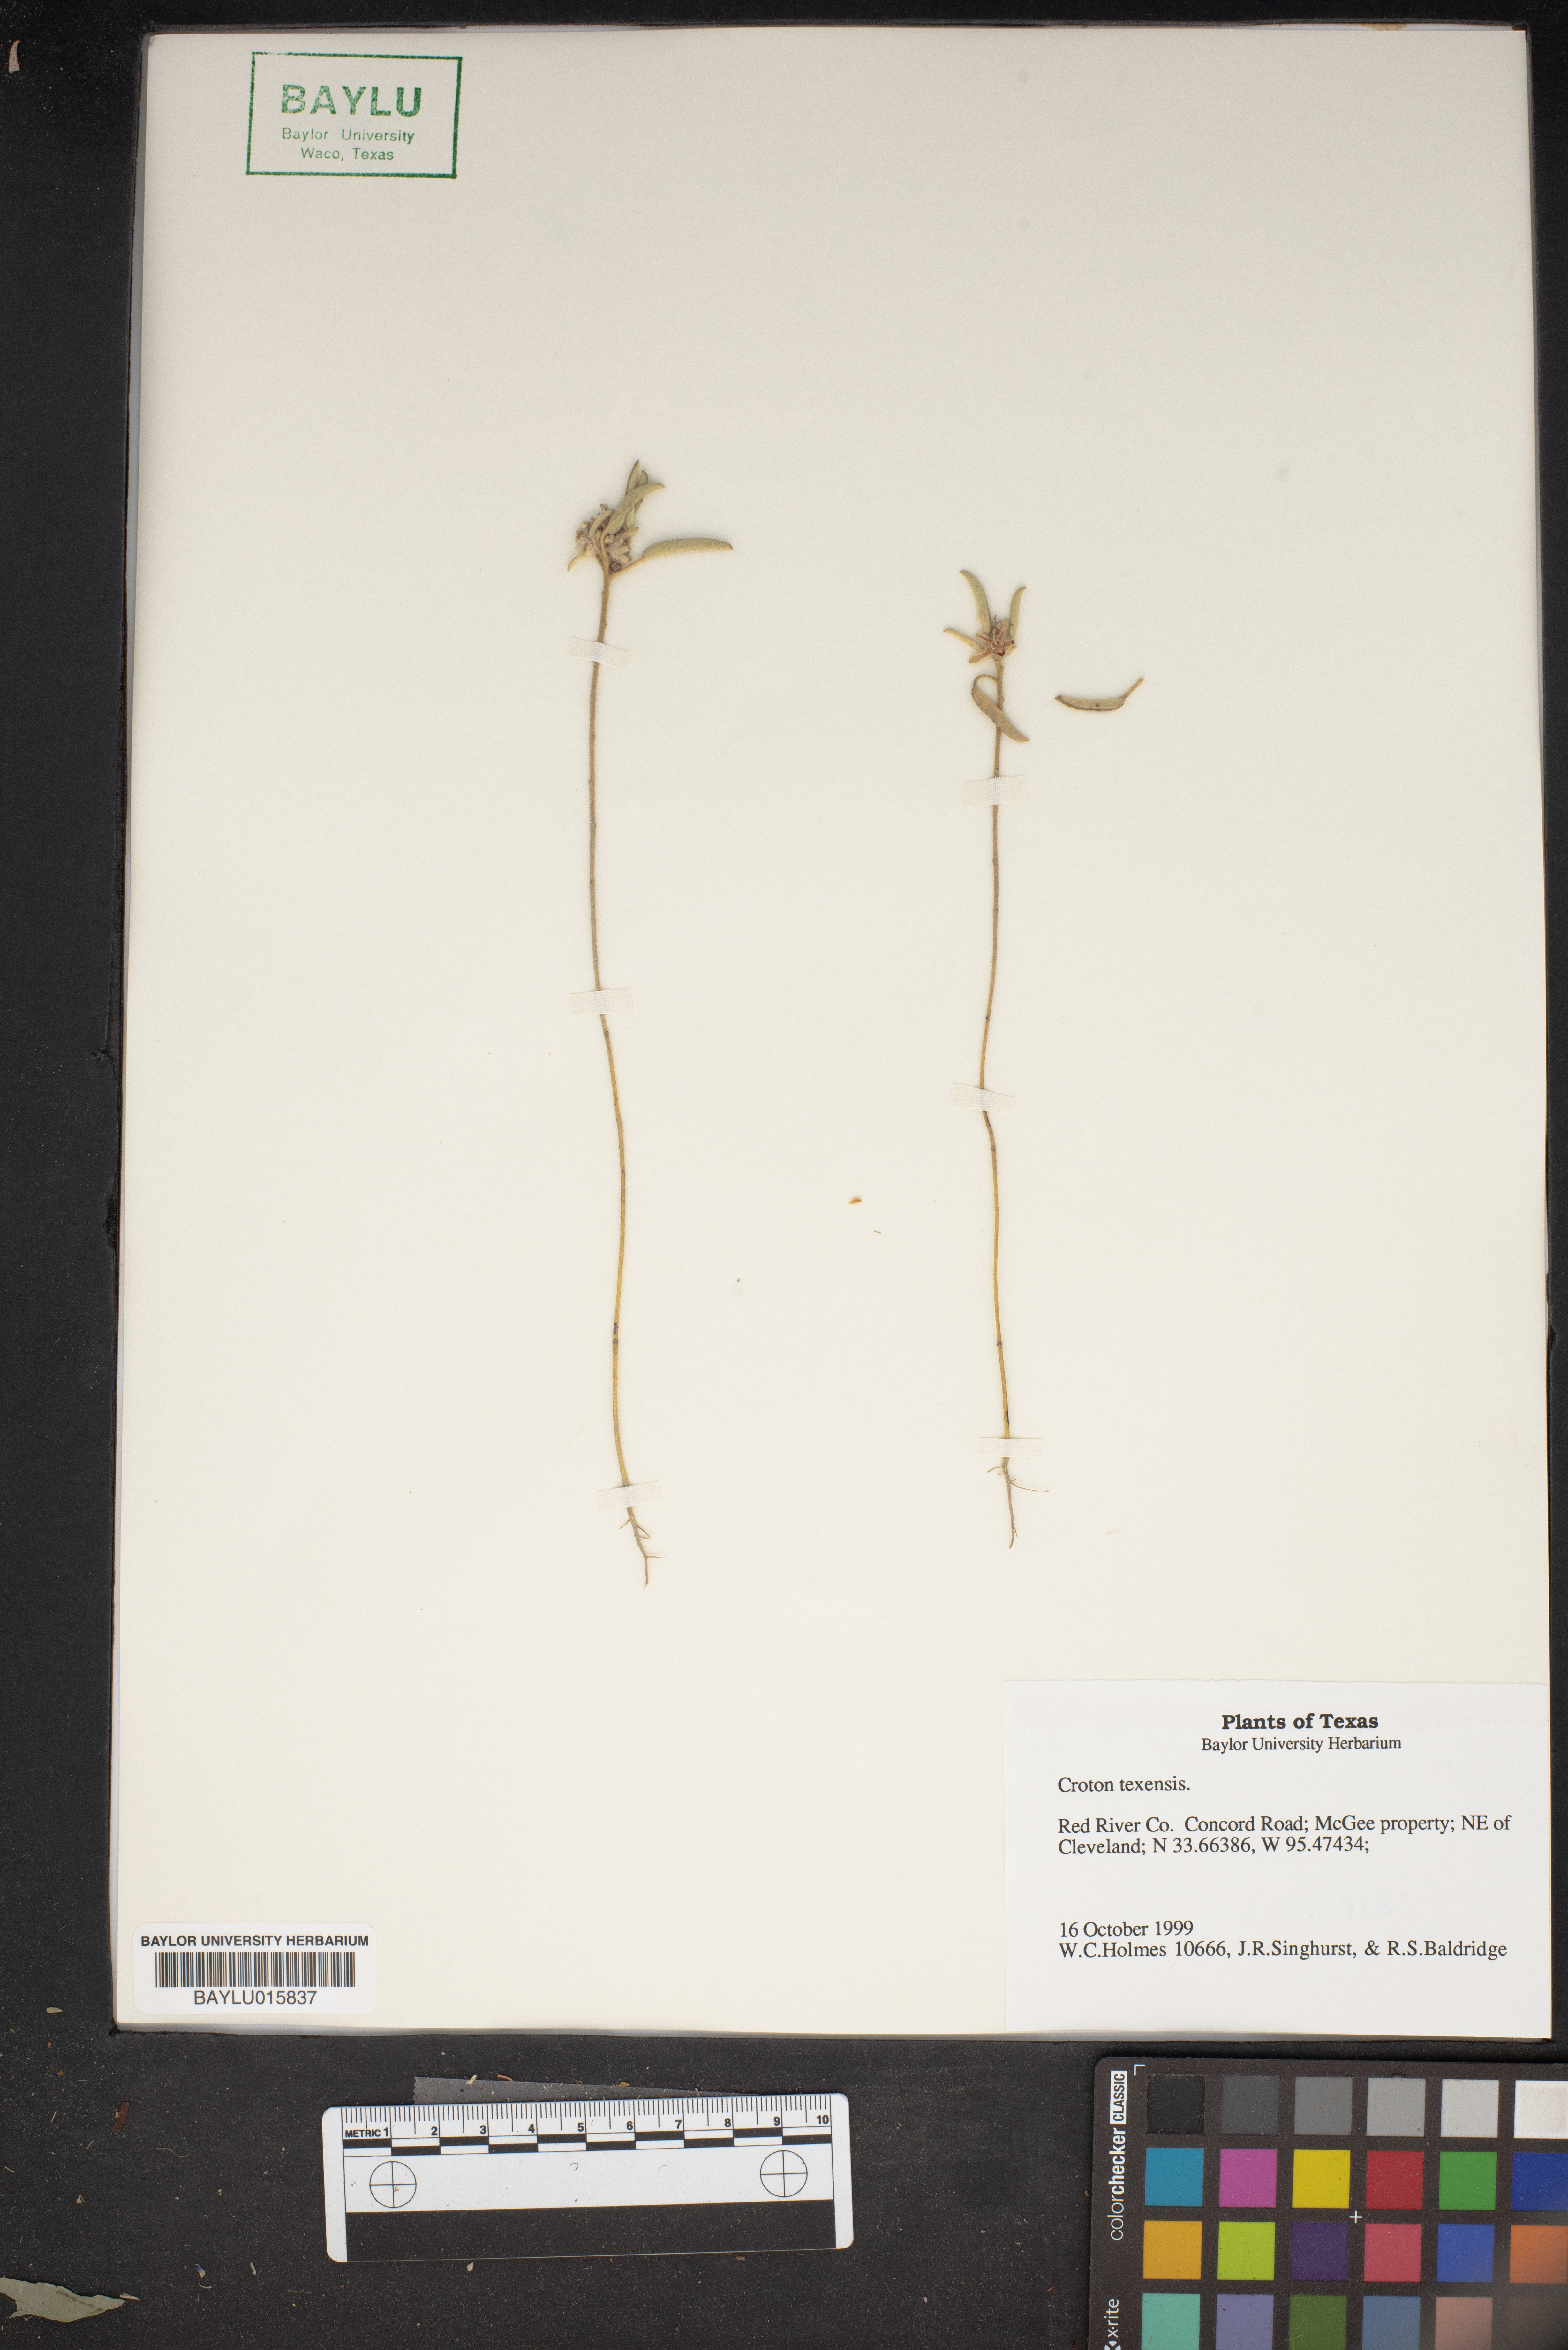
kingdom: Plantae
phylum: Tracheophyta
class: Magnoliopsida
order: Malpighiales
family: Euphorbiaceae
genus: Croton
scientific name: Croton texensis
